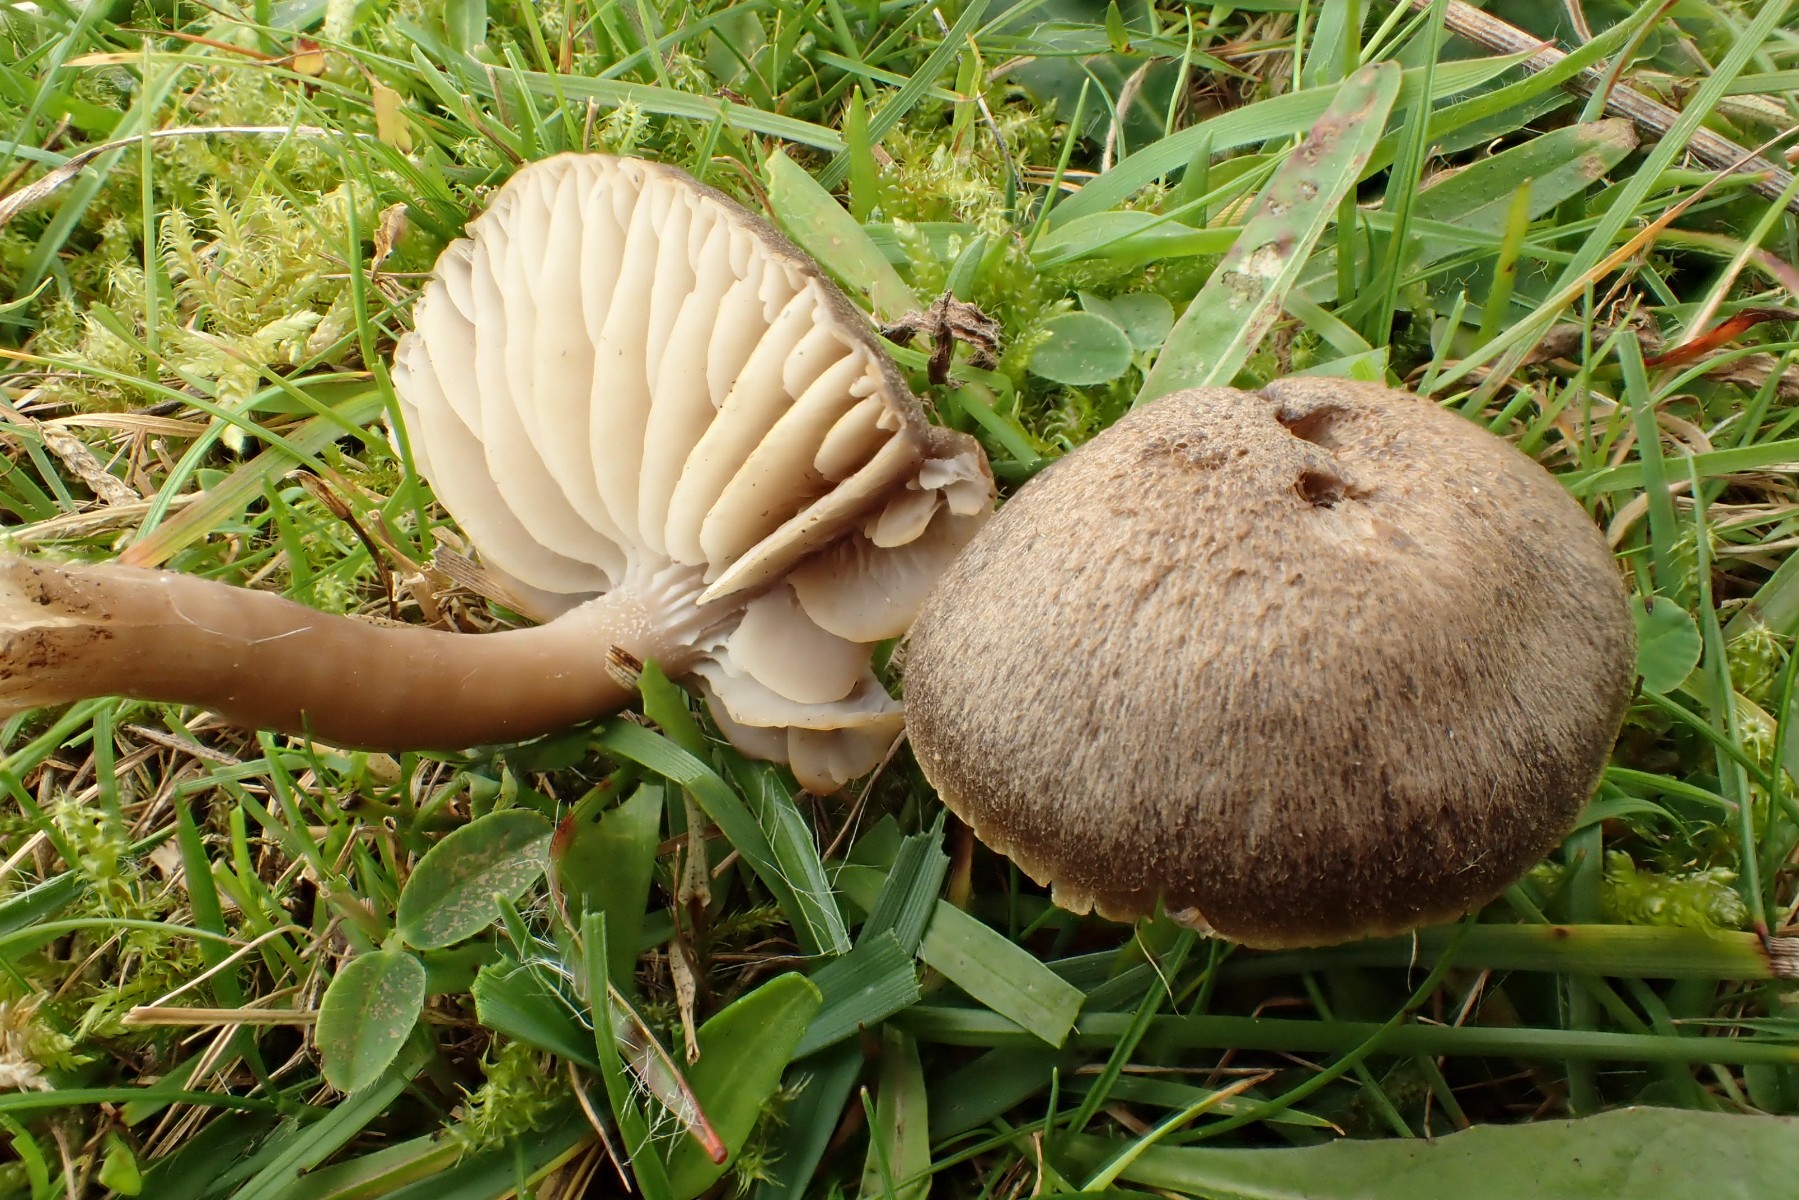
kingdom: Fungi
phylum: Basidiomycota
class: Agaricomycetes
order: Agaricales
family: Hygrophoraceae
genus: Neohygrocybe
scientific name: Neohygrocybe nitrata
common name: stinkende vokshat
